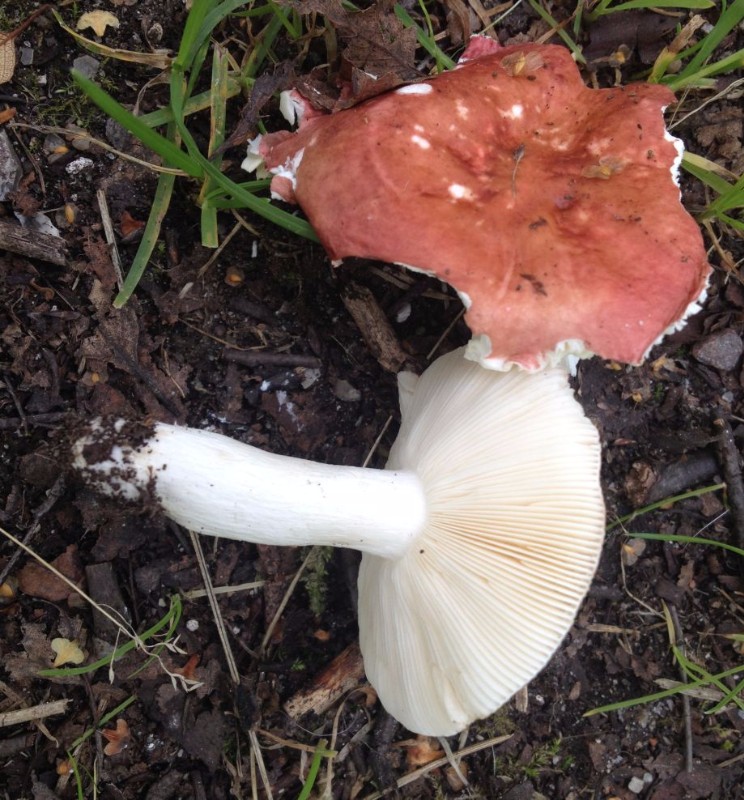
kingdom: Fungi
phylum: Basidiomycota
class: Agaricomycetes
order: Russulales
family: Russulaceae
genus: Russula
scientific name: Russula depallens
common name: falmende skørhat
